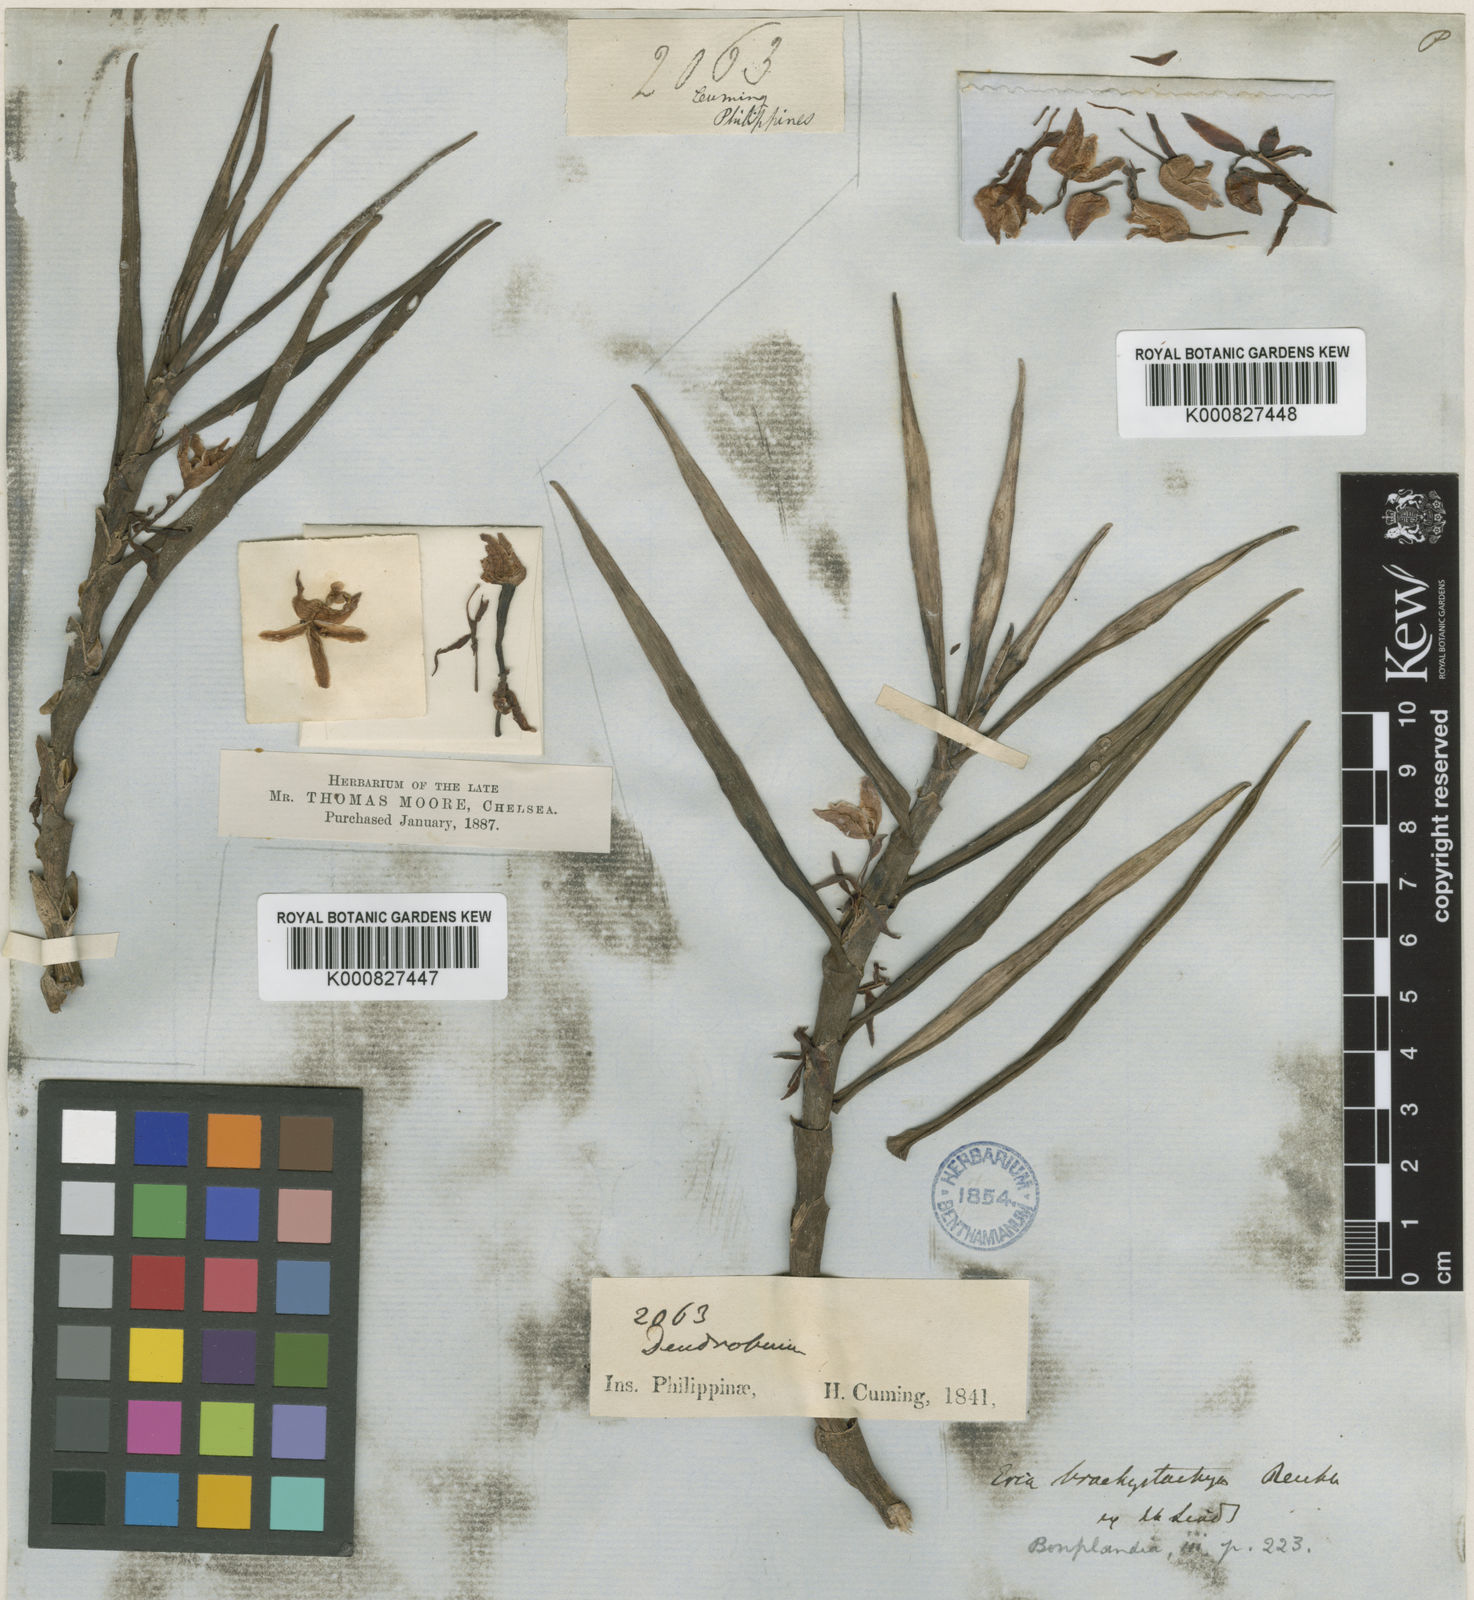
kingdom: Plantae
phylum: Tracheophyta
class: Liliopsida
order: Asparagales
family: Orchidaceae
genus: Cylindrolobus
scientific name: Cylindrolobus brachystachyus
